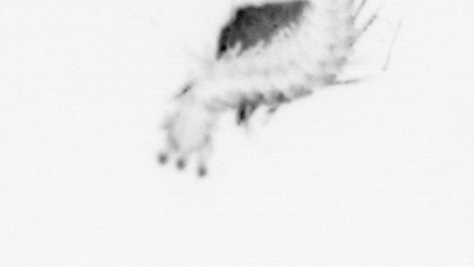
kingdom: Animalia
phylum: Annelida
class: Polychaeta
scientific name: Polychaeta
